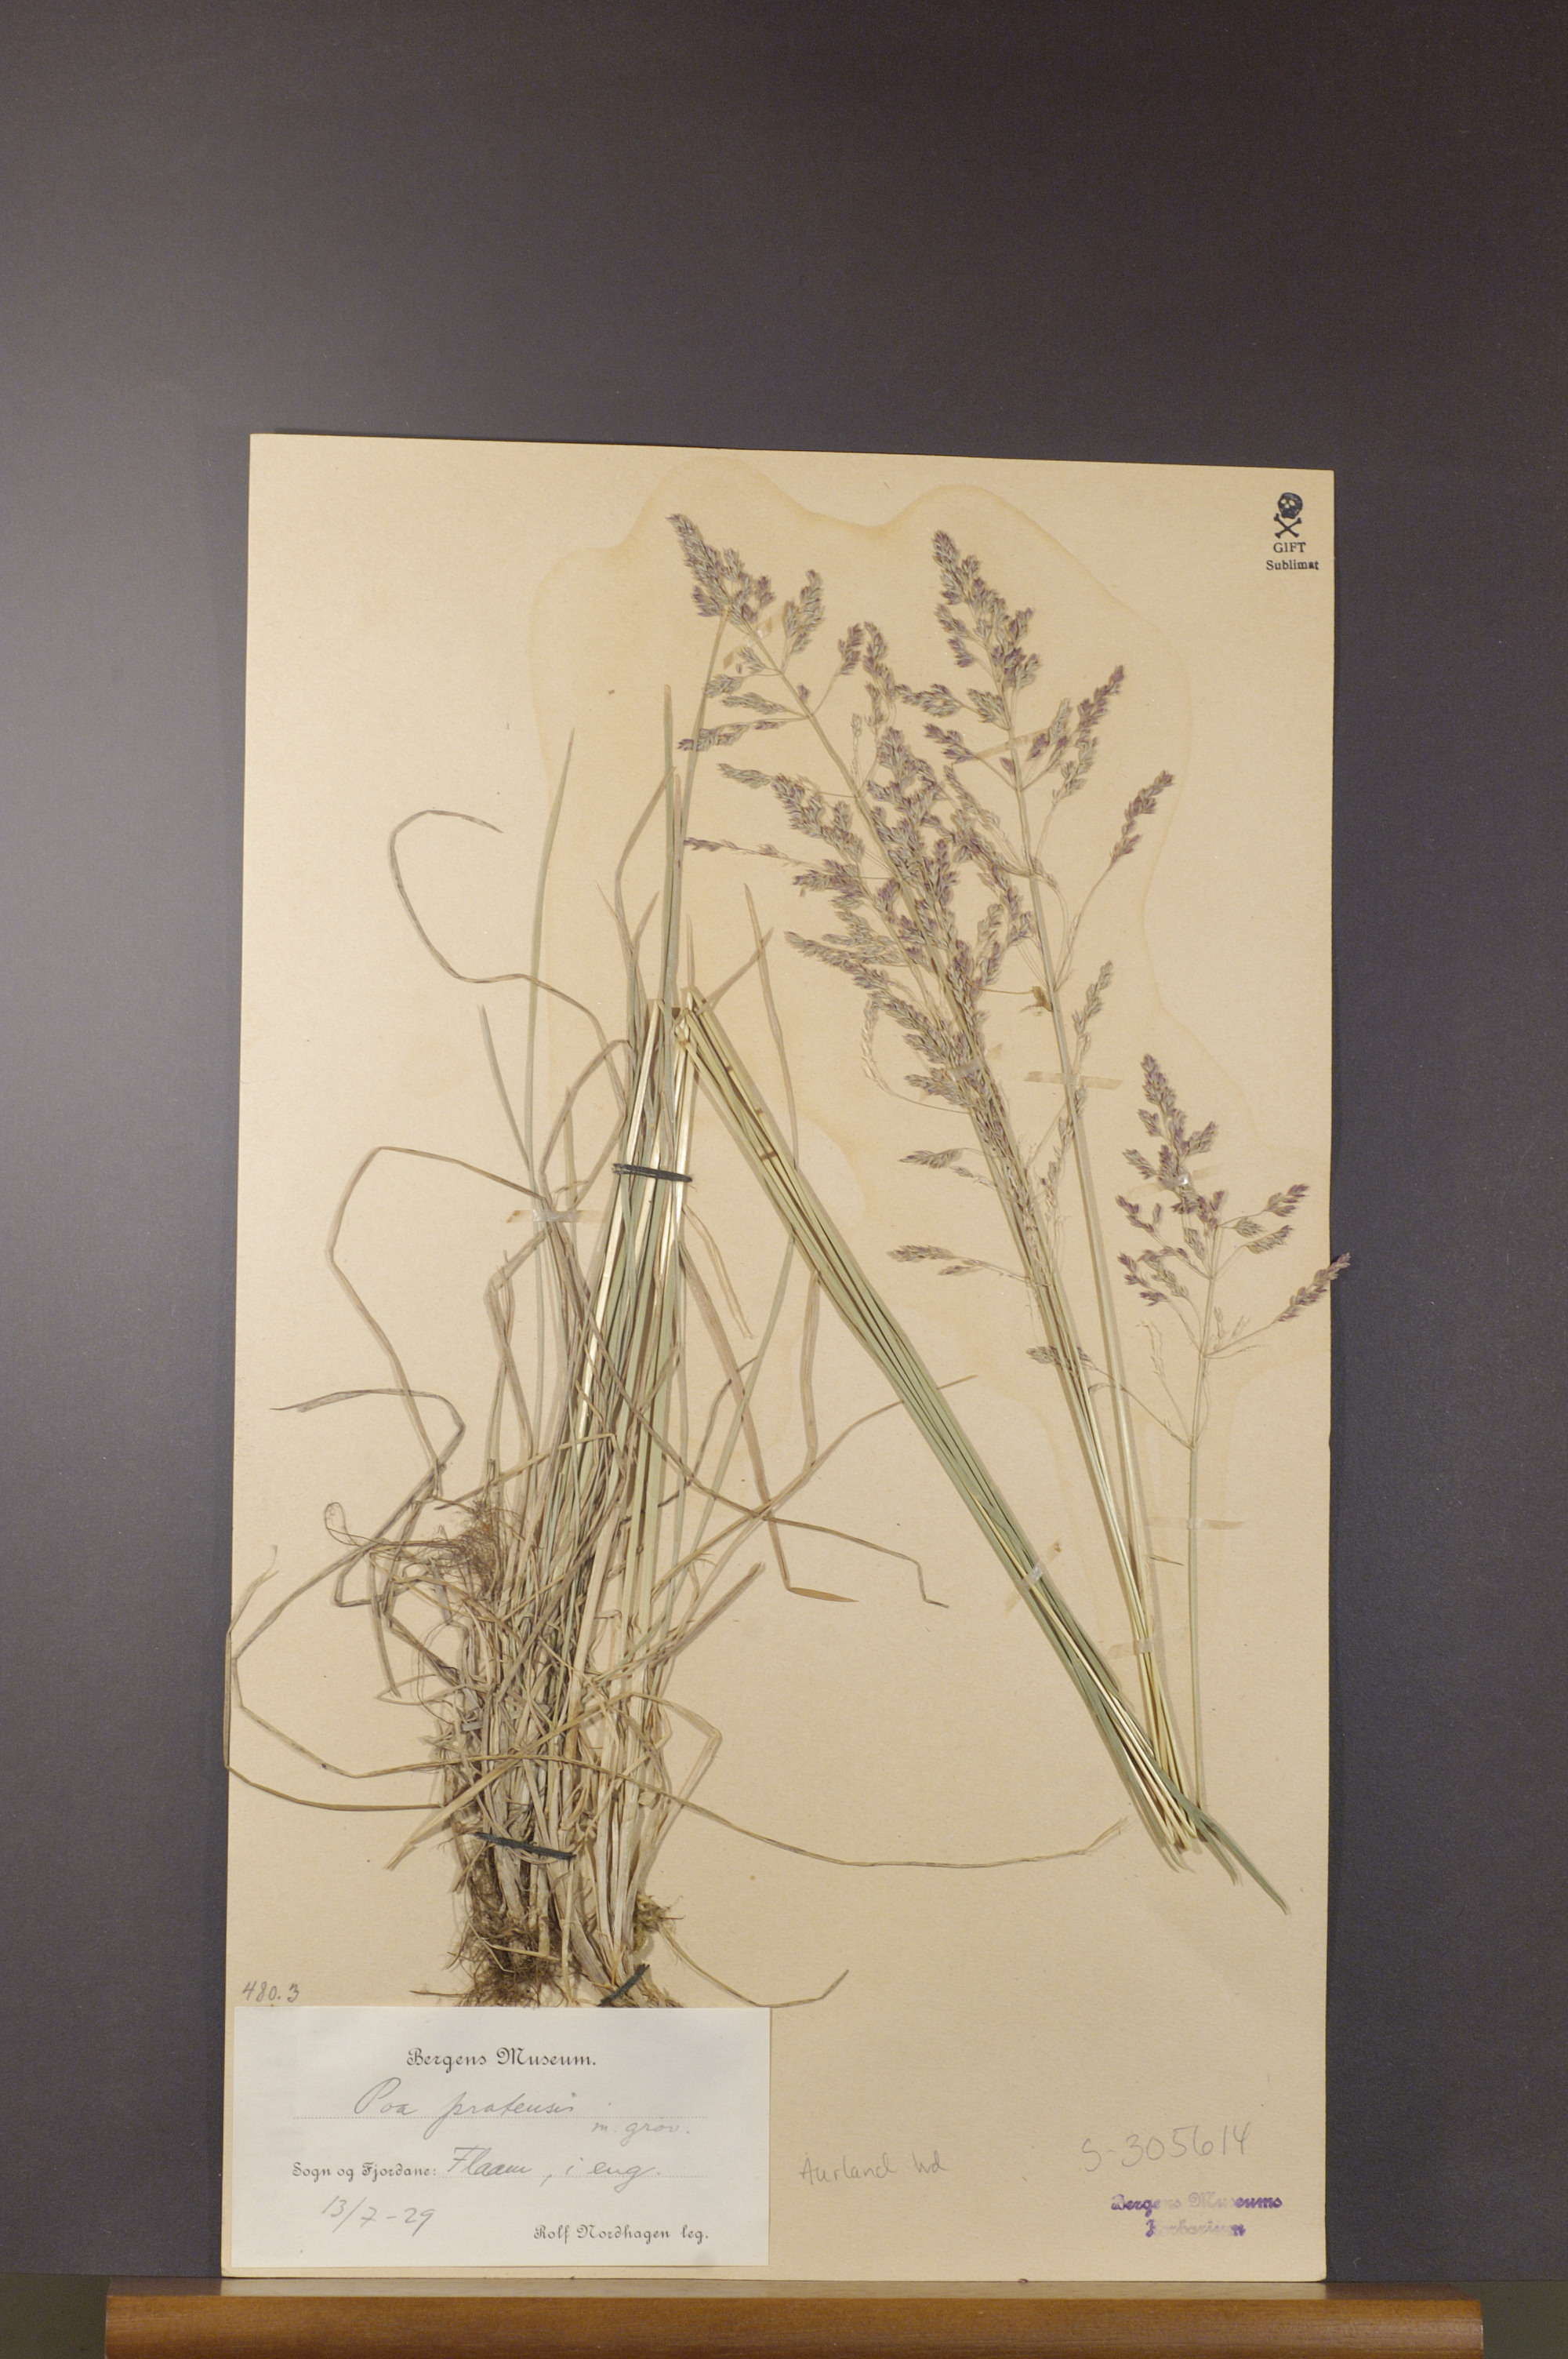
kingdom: Plantae
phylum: Tracheophyta
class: Liliopsida
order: Poales
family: Poaceae
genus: Poa
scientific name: Poa pratensis
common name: Kentucky bluegrass
